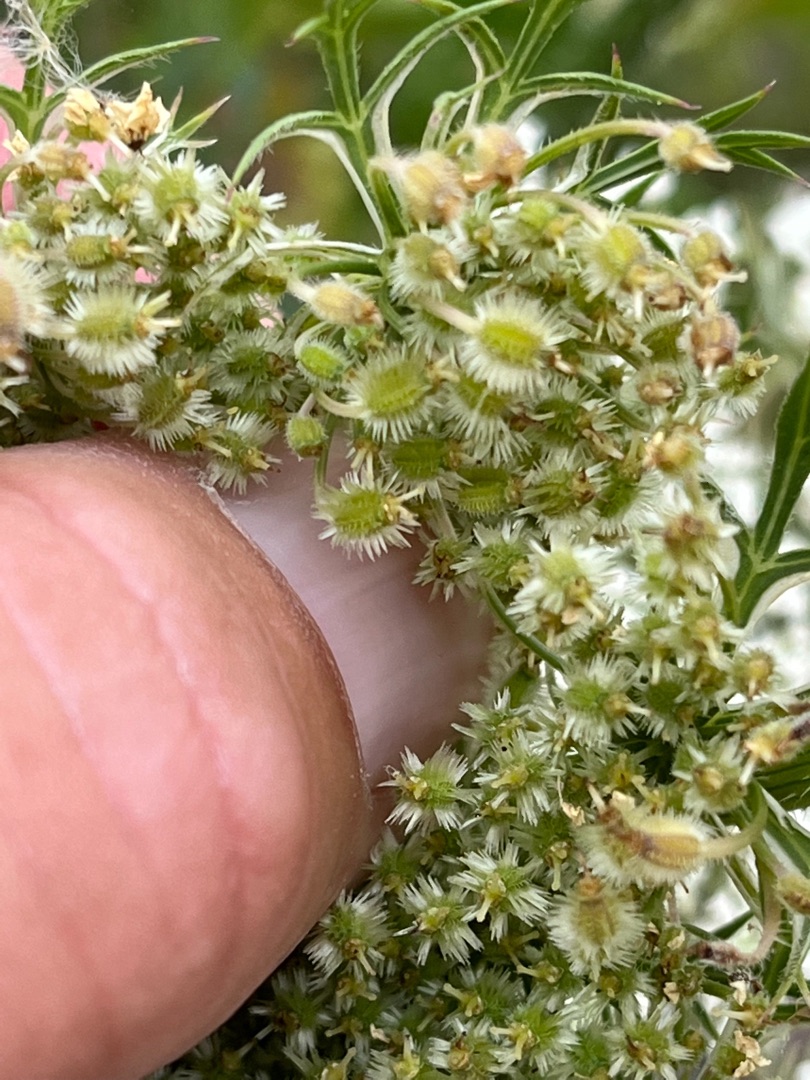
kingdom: Plantae
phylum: Tracheophyta
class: Magnoliopsida
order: Apiales
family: Apiaceae
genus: Daucus
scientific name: Daucus carota
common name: Gulerod
